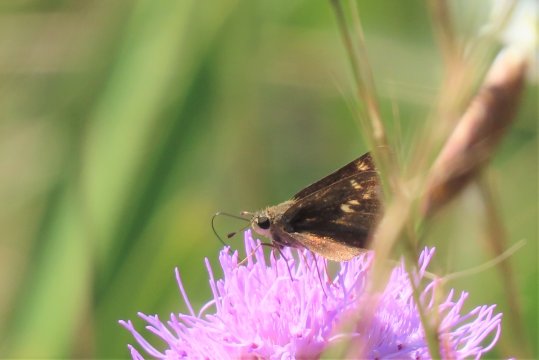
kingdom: Animalia
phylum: Arthropoda
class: Insecta
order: Lepidoptera
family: Hesperiidae
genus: Hesperia
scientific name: Hesperia attalus
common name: Dotted Skipper
